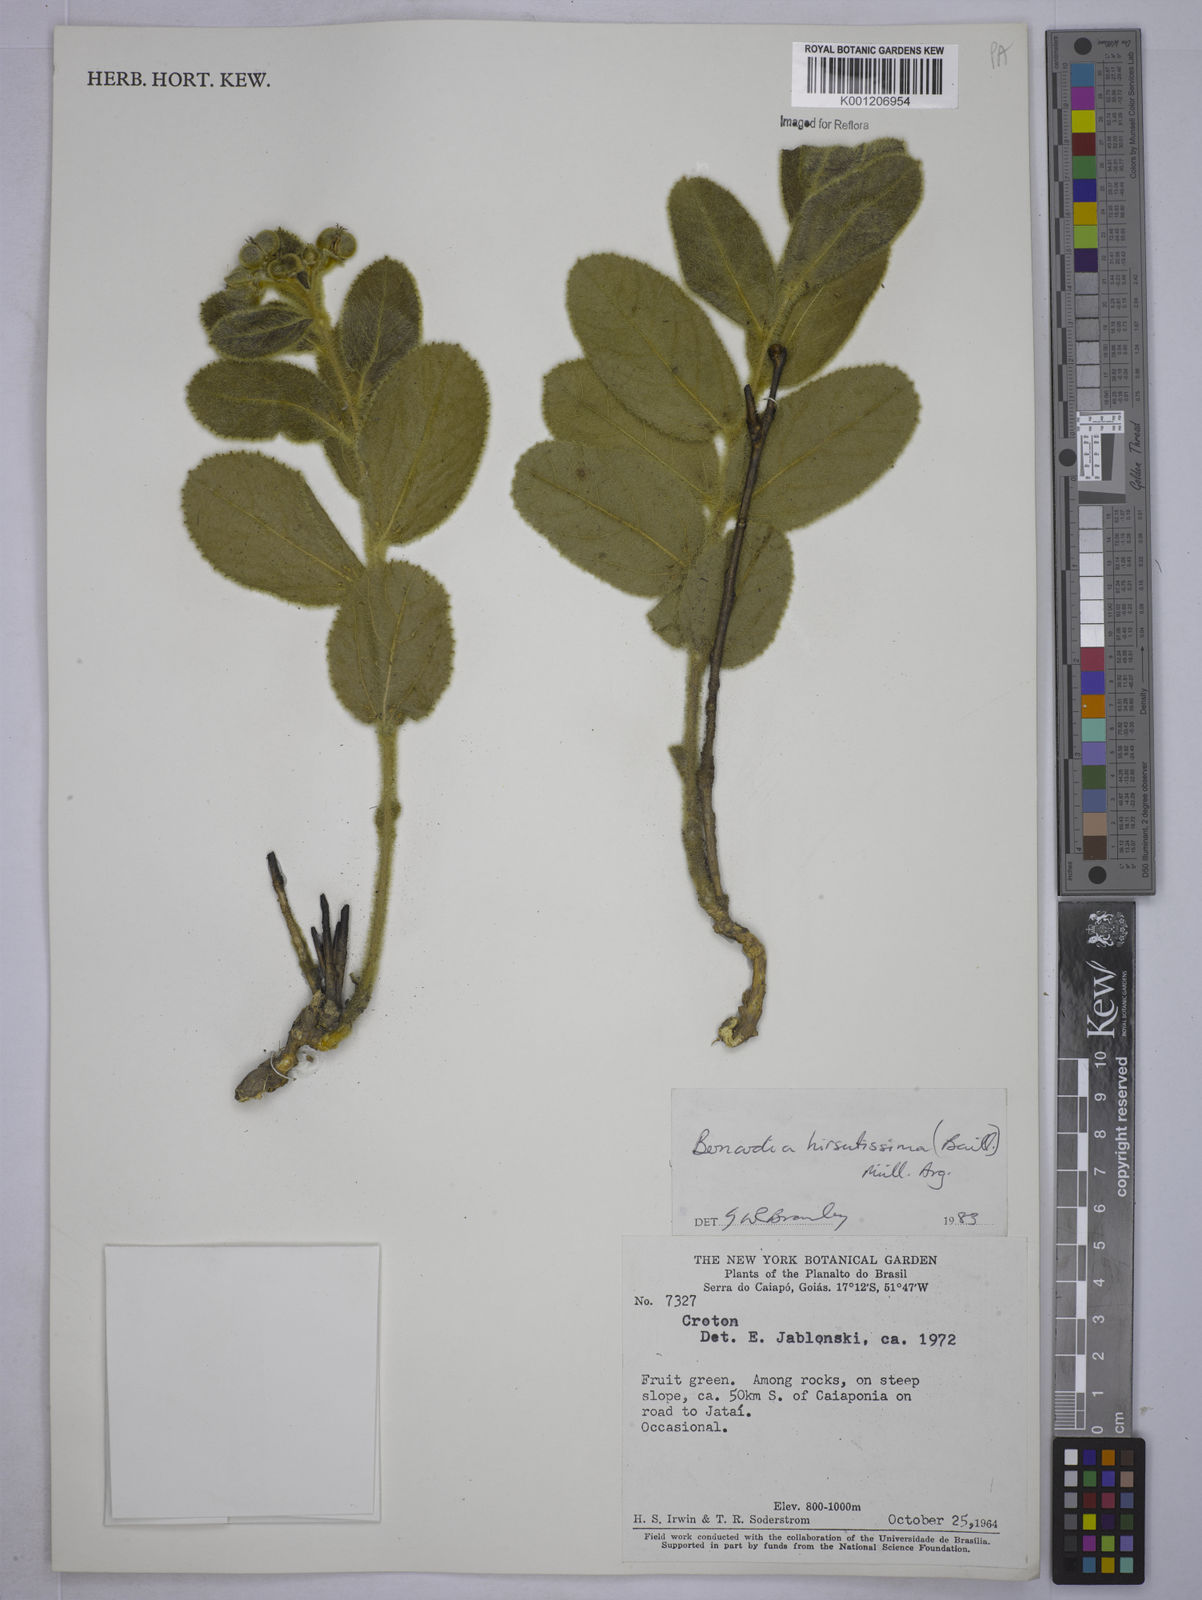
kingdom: Plantae
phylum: Tracheophyta
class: Magnoliopsida
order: Malpighiales
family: Euphorbiaceae
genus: Bernardia
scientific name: Bernardia
